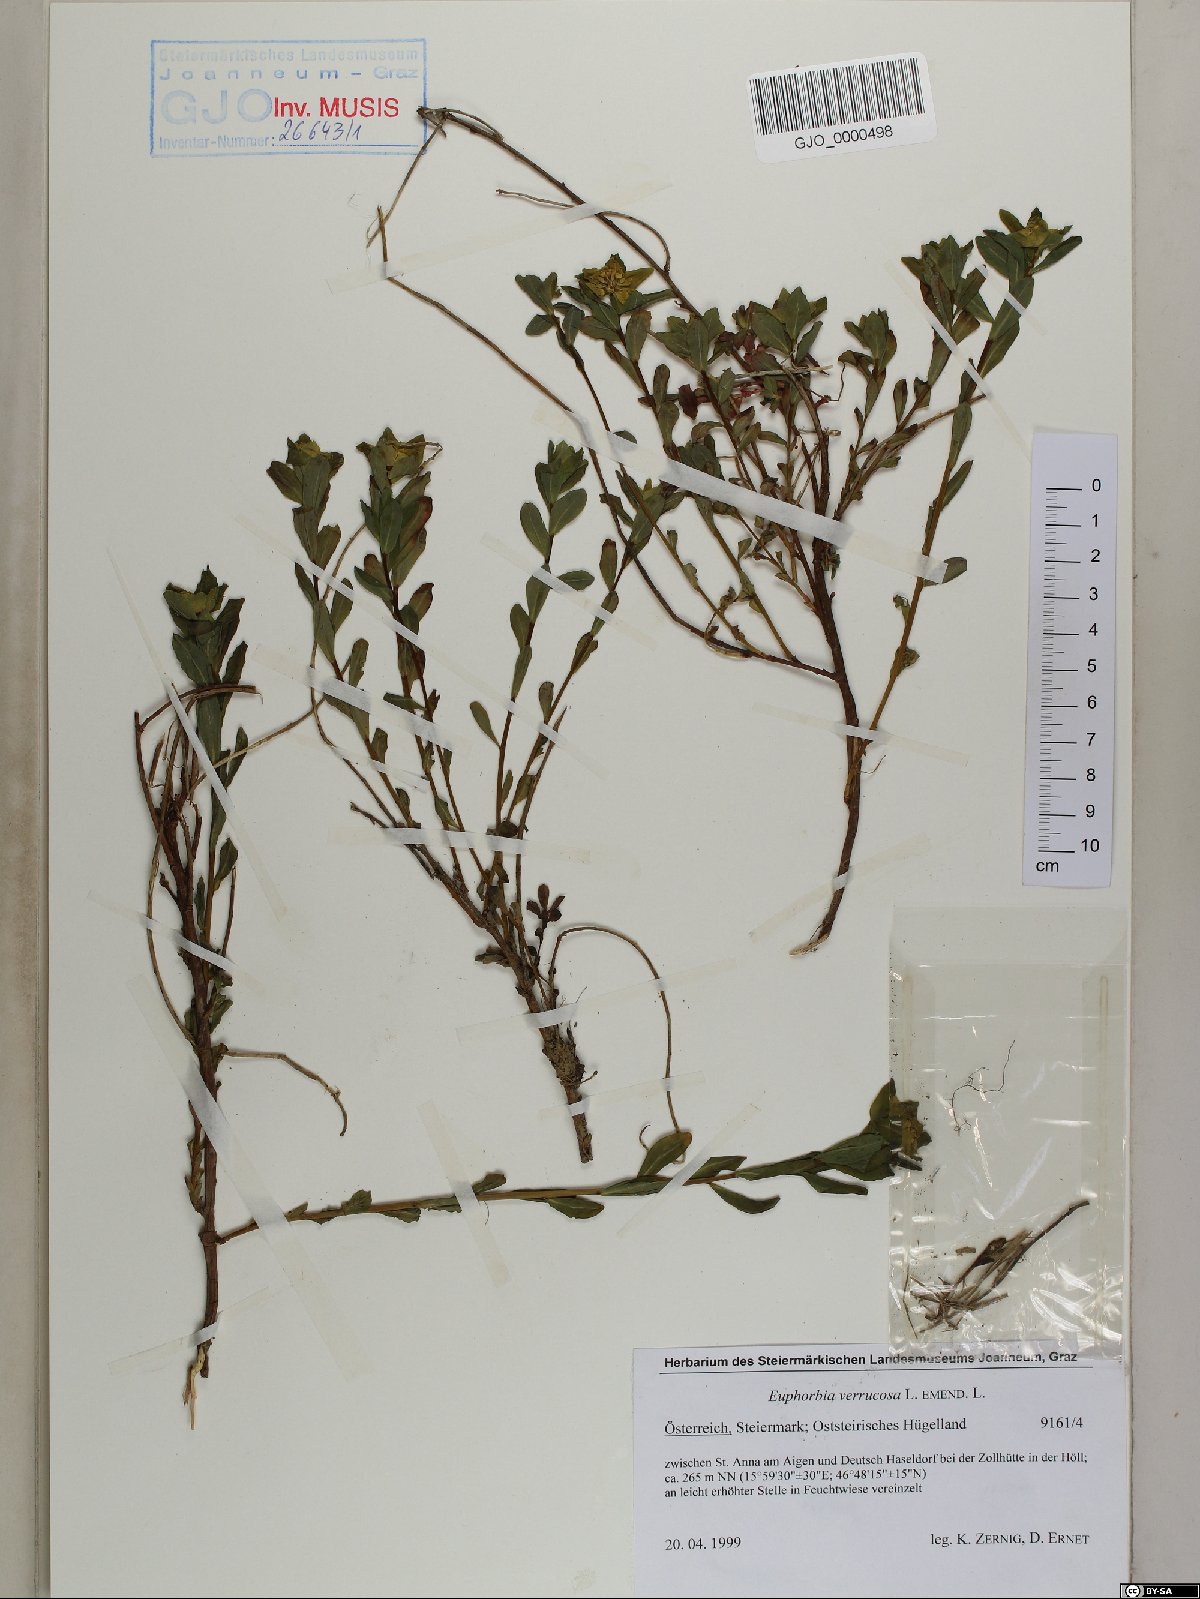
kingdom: Plantae
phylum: Tracheophyta
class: Magnoliopsida
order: Malpighiales
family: Euphorbiaceae
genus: Euphorbia
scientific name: Euphorbia verrucosa
